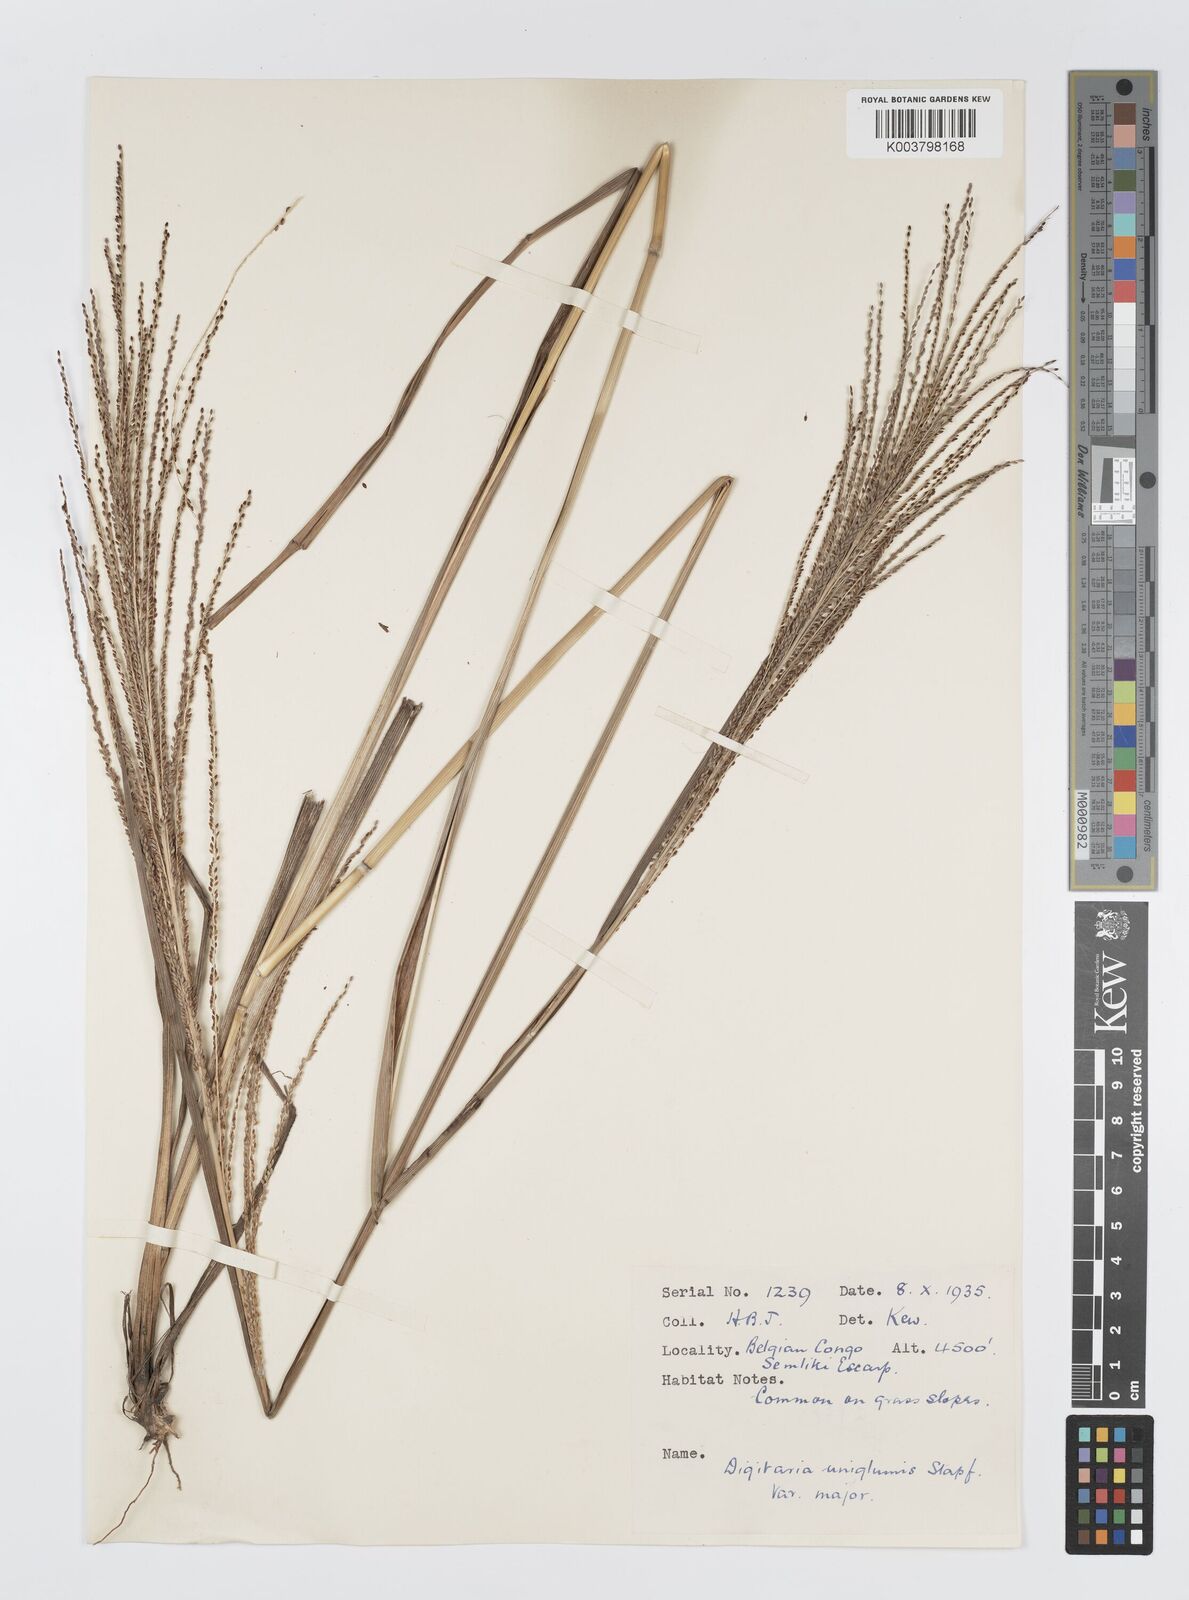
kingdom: Plantae
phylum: Tracheophyta
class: Liliopsida
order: Poales
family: Poaceae
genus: Digitaria
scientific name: Digitaria diagonalis
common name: Brown-seed finger grass
